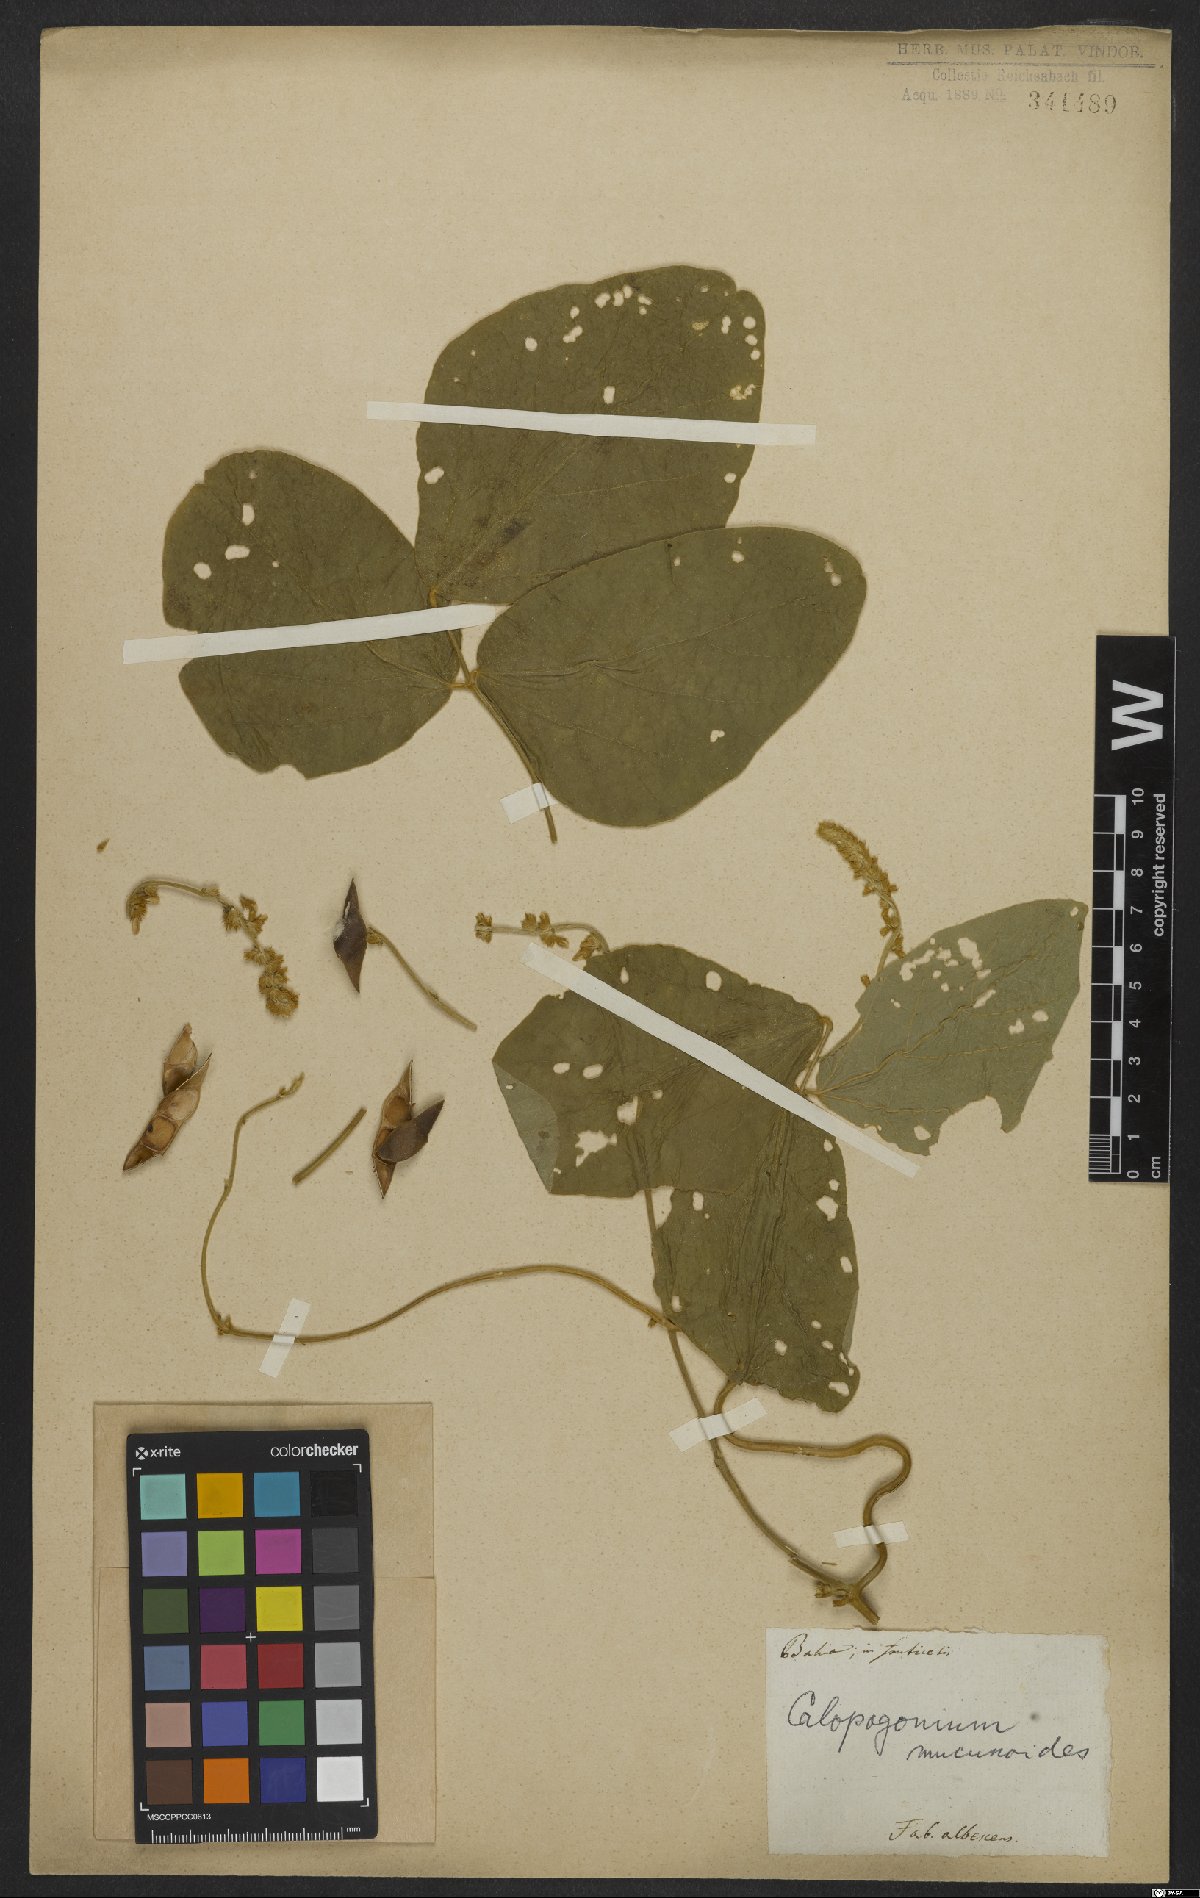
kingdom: Plantae
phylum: Tracheophyta
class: Magnoliopsida
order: Fabales
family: Fabaceae
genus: Calopogonium
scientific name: Calopogonium mucunoides
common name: Calopo
